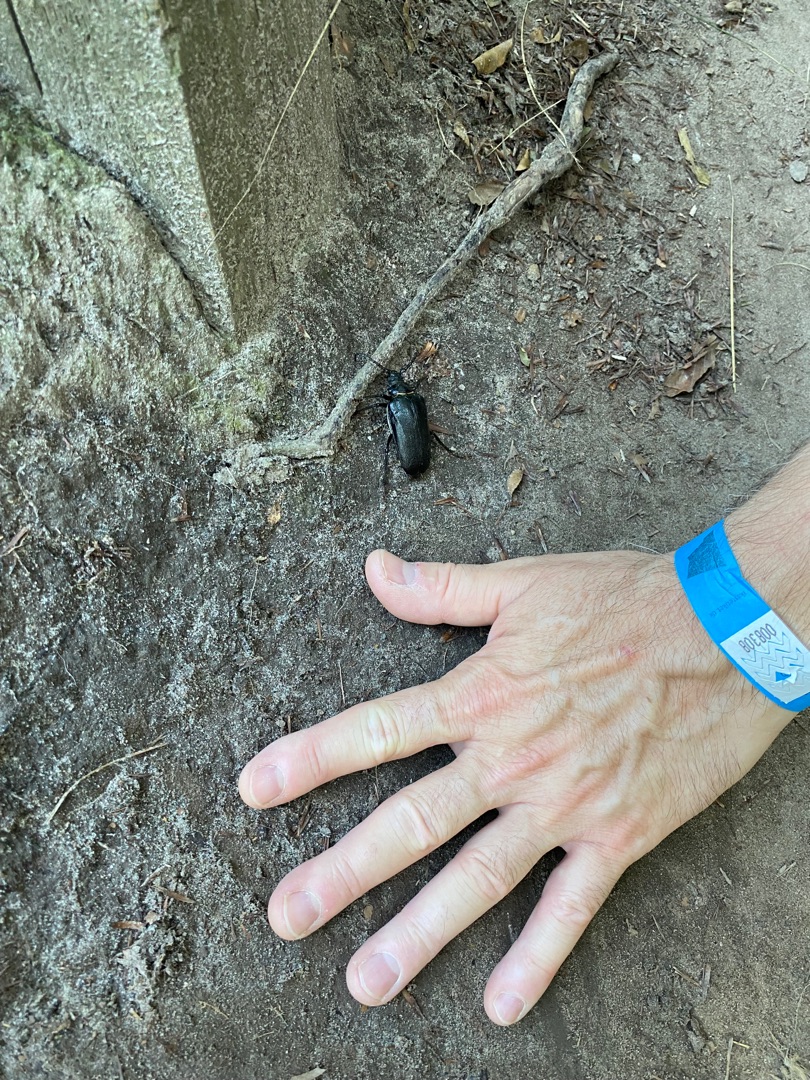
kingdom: Animalia
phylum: Arthropoda
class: Insecta
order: Coleoptera
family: Cerambycidae
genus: Prionus
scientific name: Prionus coriarius
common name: Garver
